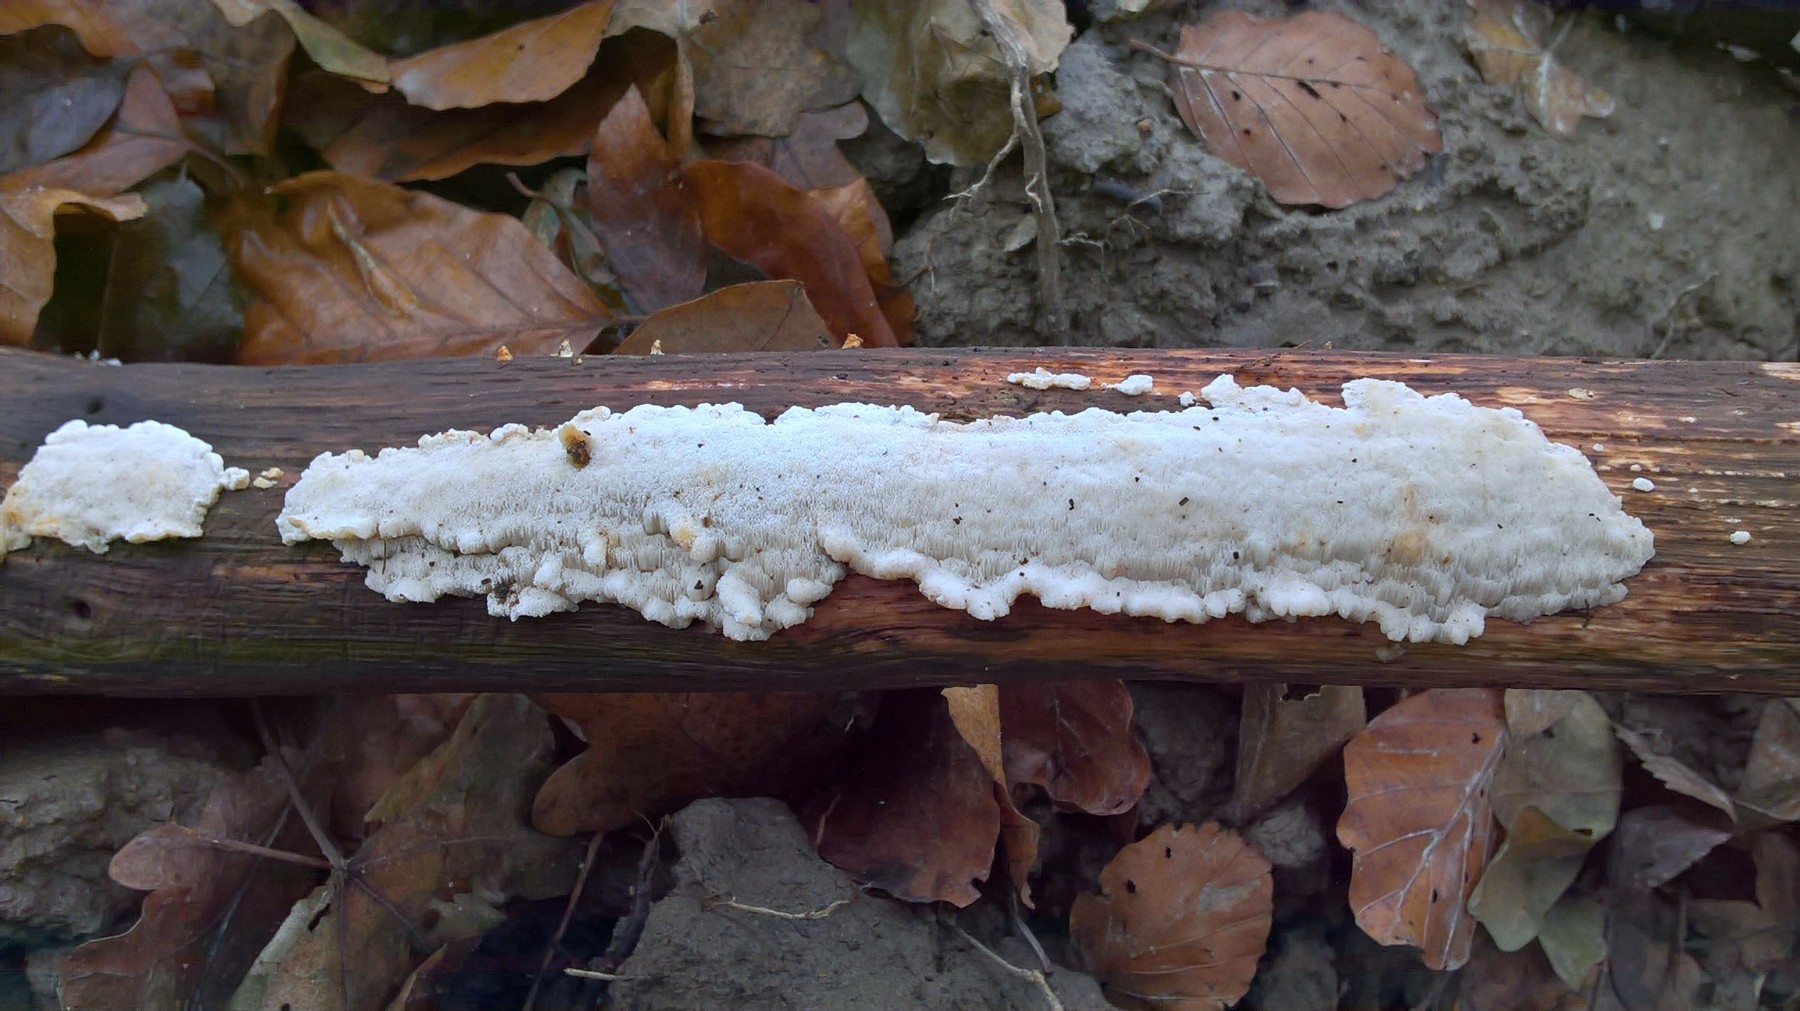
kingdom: Fungi
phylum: Basidiomycota
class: Agaricomycetes
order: Polyporales
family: Steccherinaceae
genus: Antrodiella
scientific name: Antrodiella faginea
